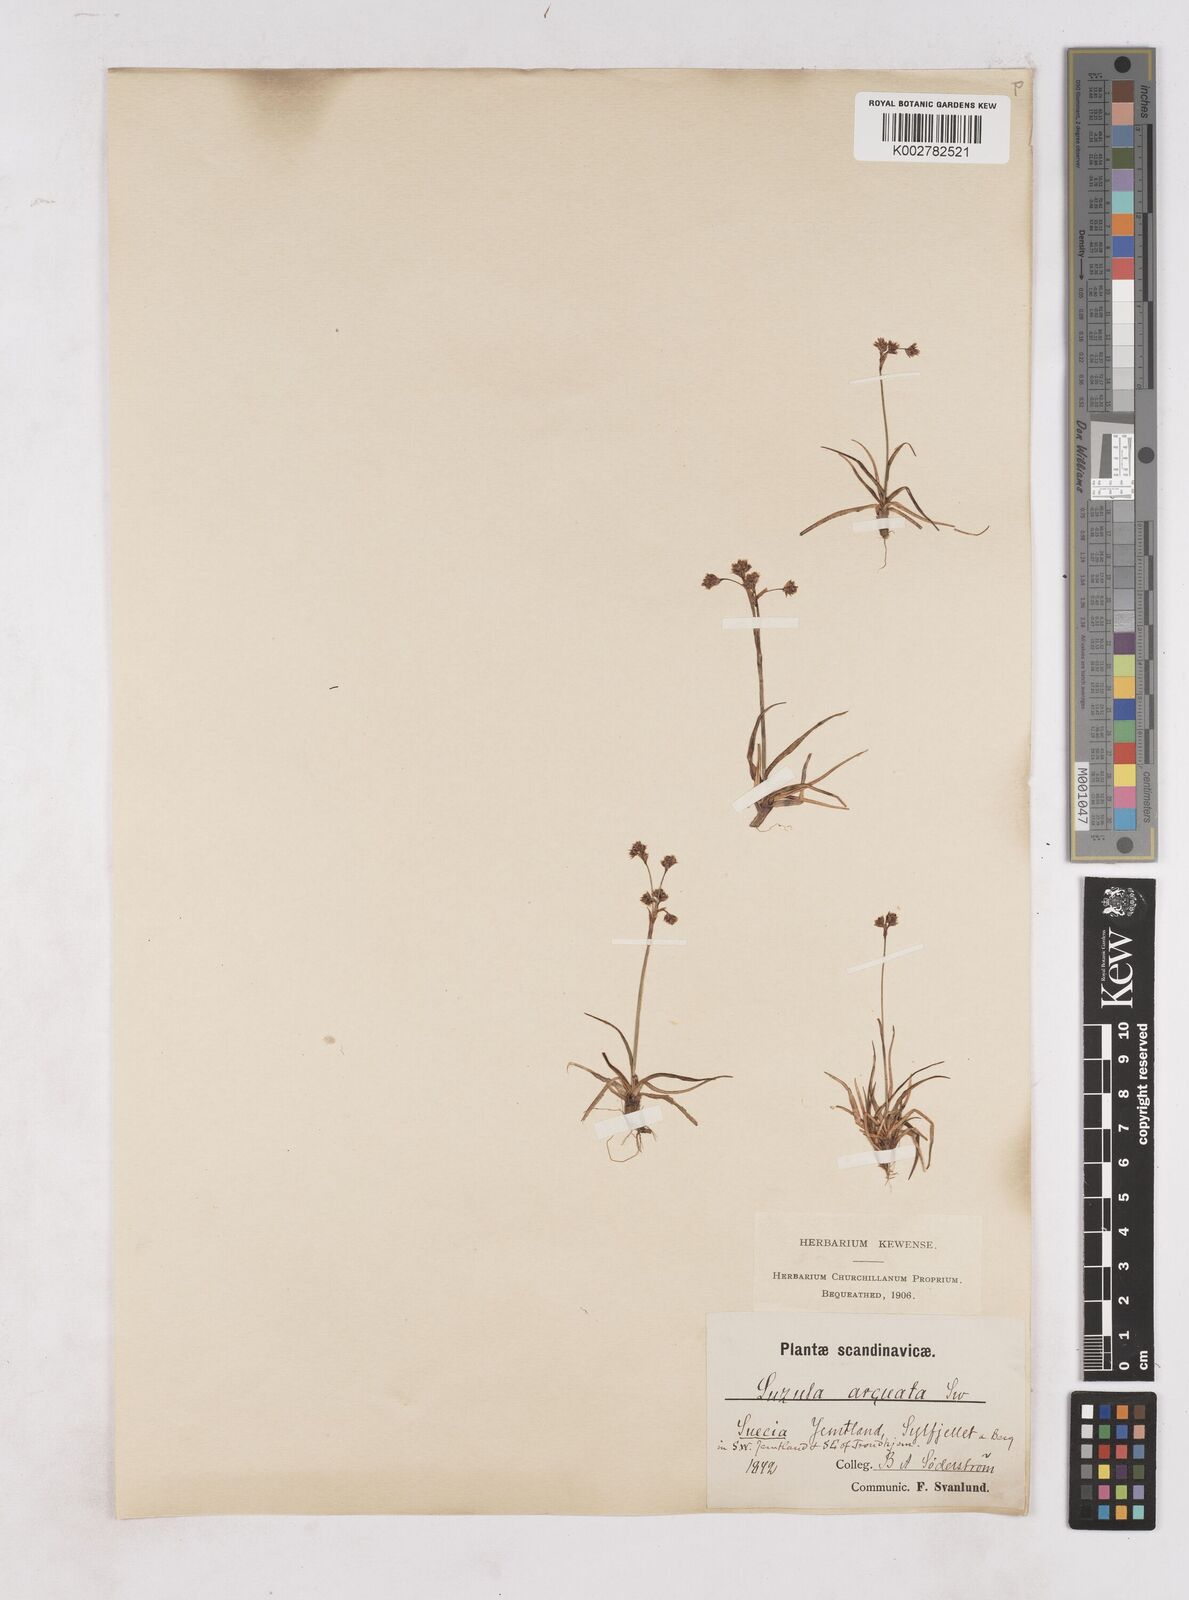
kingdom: Plantae
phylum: Tracheophyta
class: Liliopsida
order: Poales
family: Juncaceae
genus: Luzula
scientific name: Luzula arcuata
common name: Curved wood-rush
